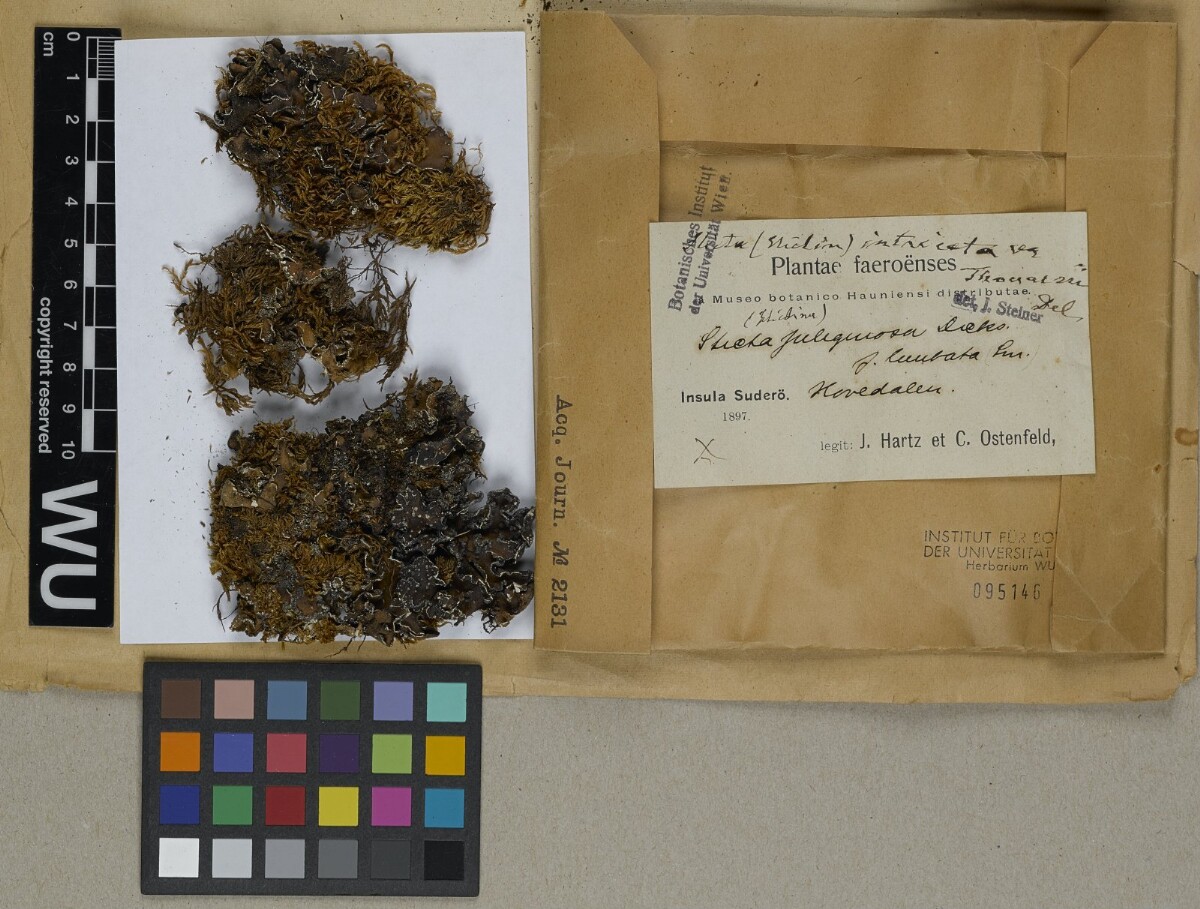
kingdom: Fungi
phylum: Ascomycota
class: Lecanoromycetes
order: Peltigerales
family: Lobariaceae
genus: Pseudocyphellaria
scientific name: Pseudocyphellaria thouarsii
